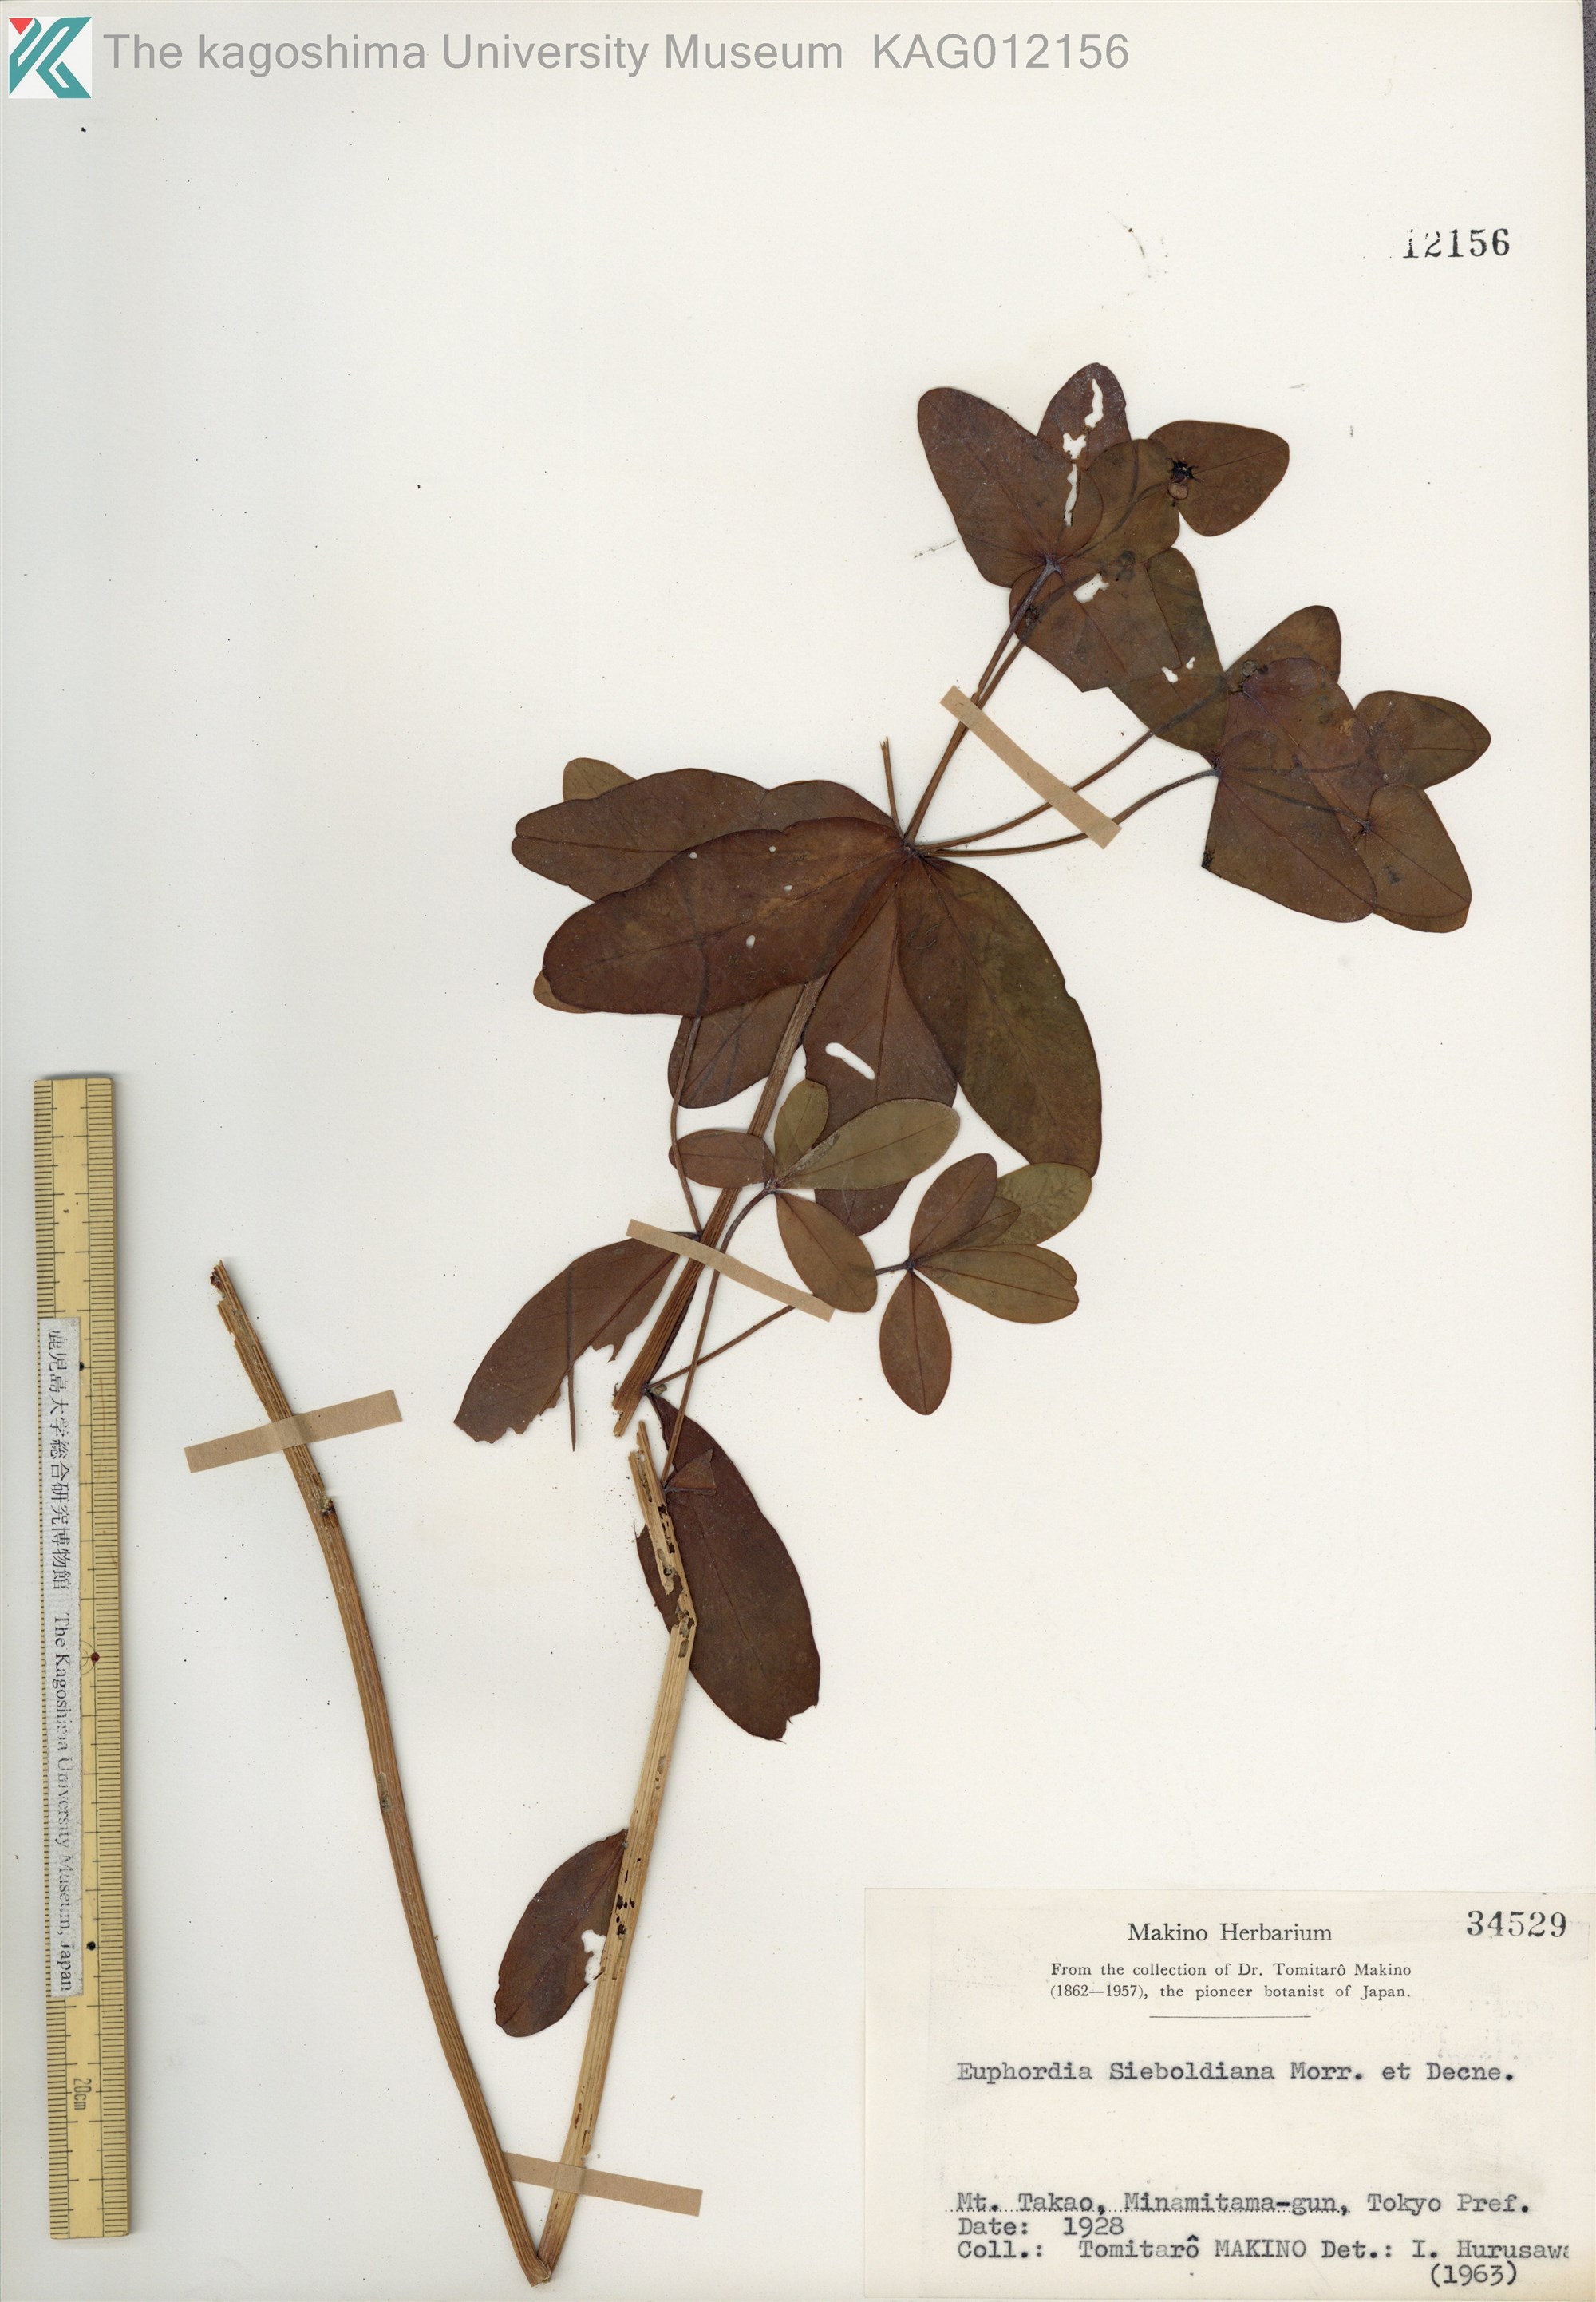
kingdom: Plantae
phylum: Tracheophyta
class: Magnoliopsida
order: Malpighiales
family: Euphorbiaceae
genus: Euphorbia
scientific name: Euphorbia sieboldiana
